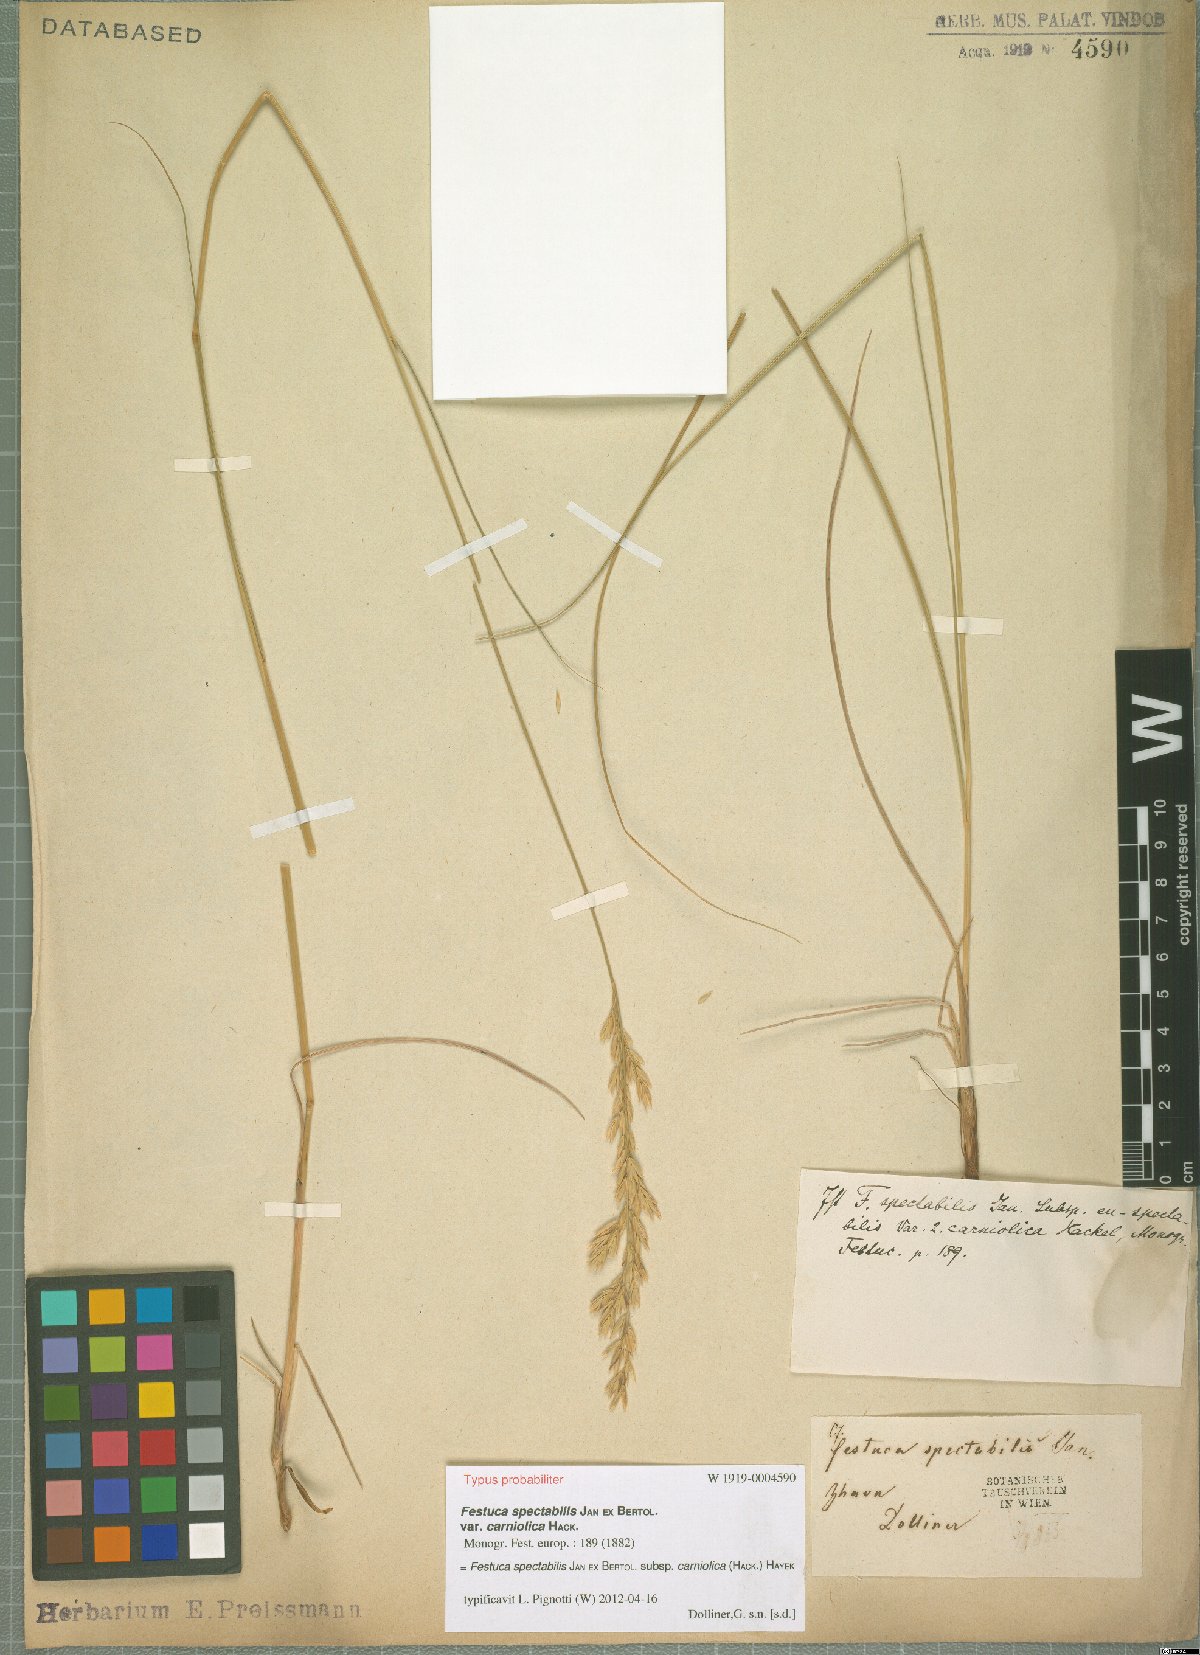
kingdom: Plantae
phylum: Tracheophyta
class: Liliopsida
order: Poales
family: Poaceae
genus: Festuca
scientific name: Festuca spectabilis
